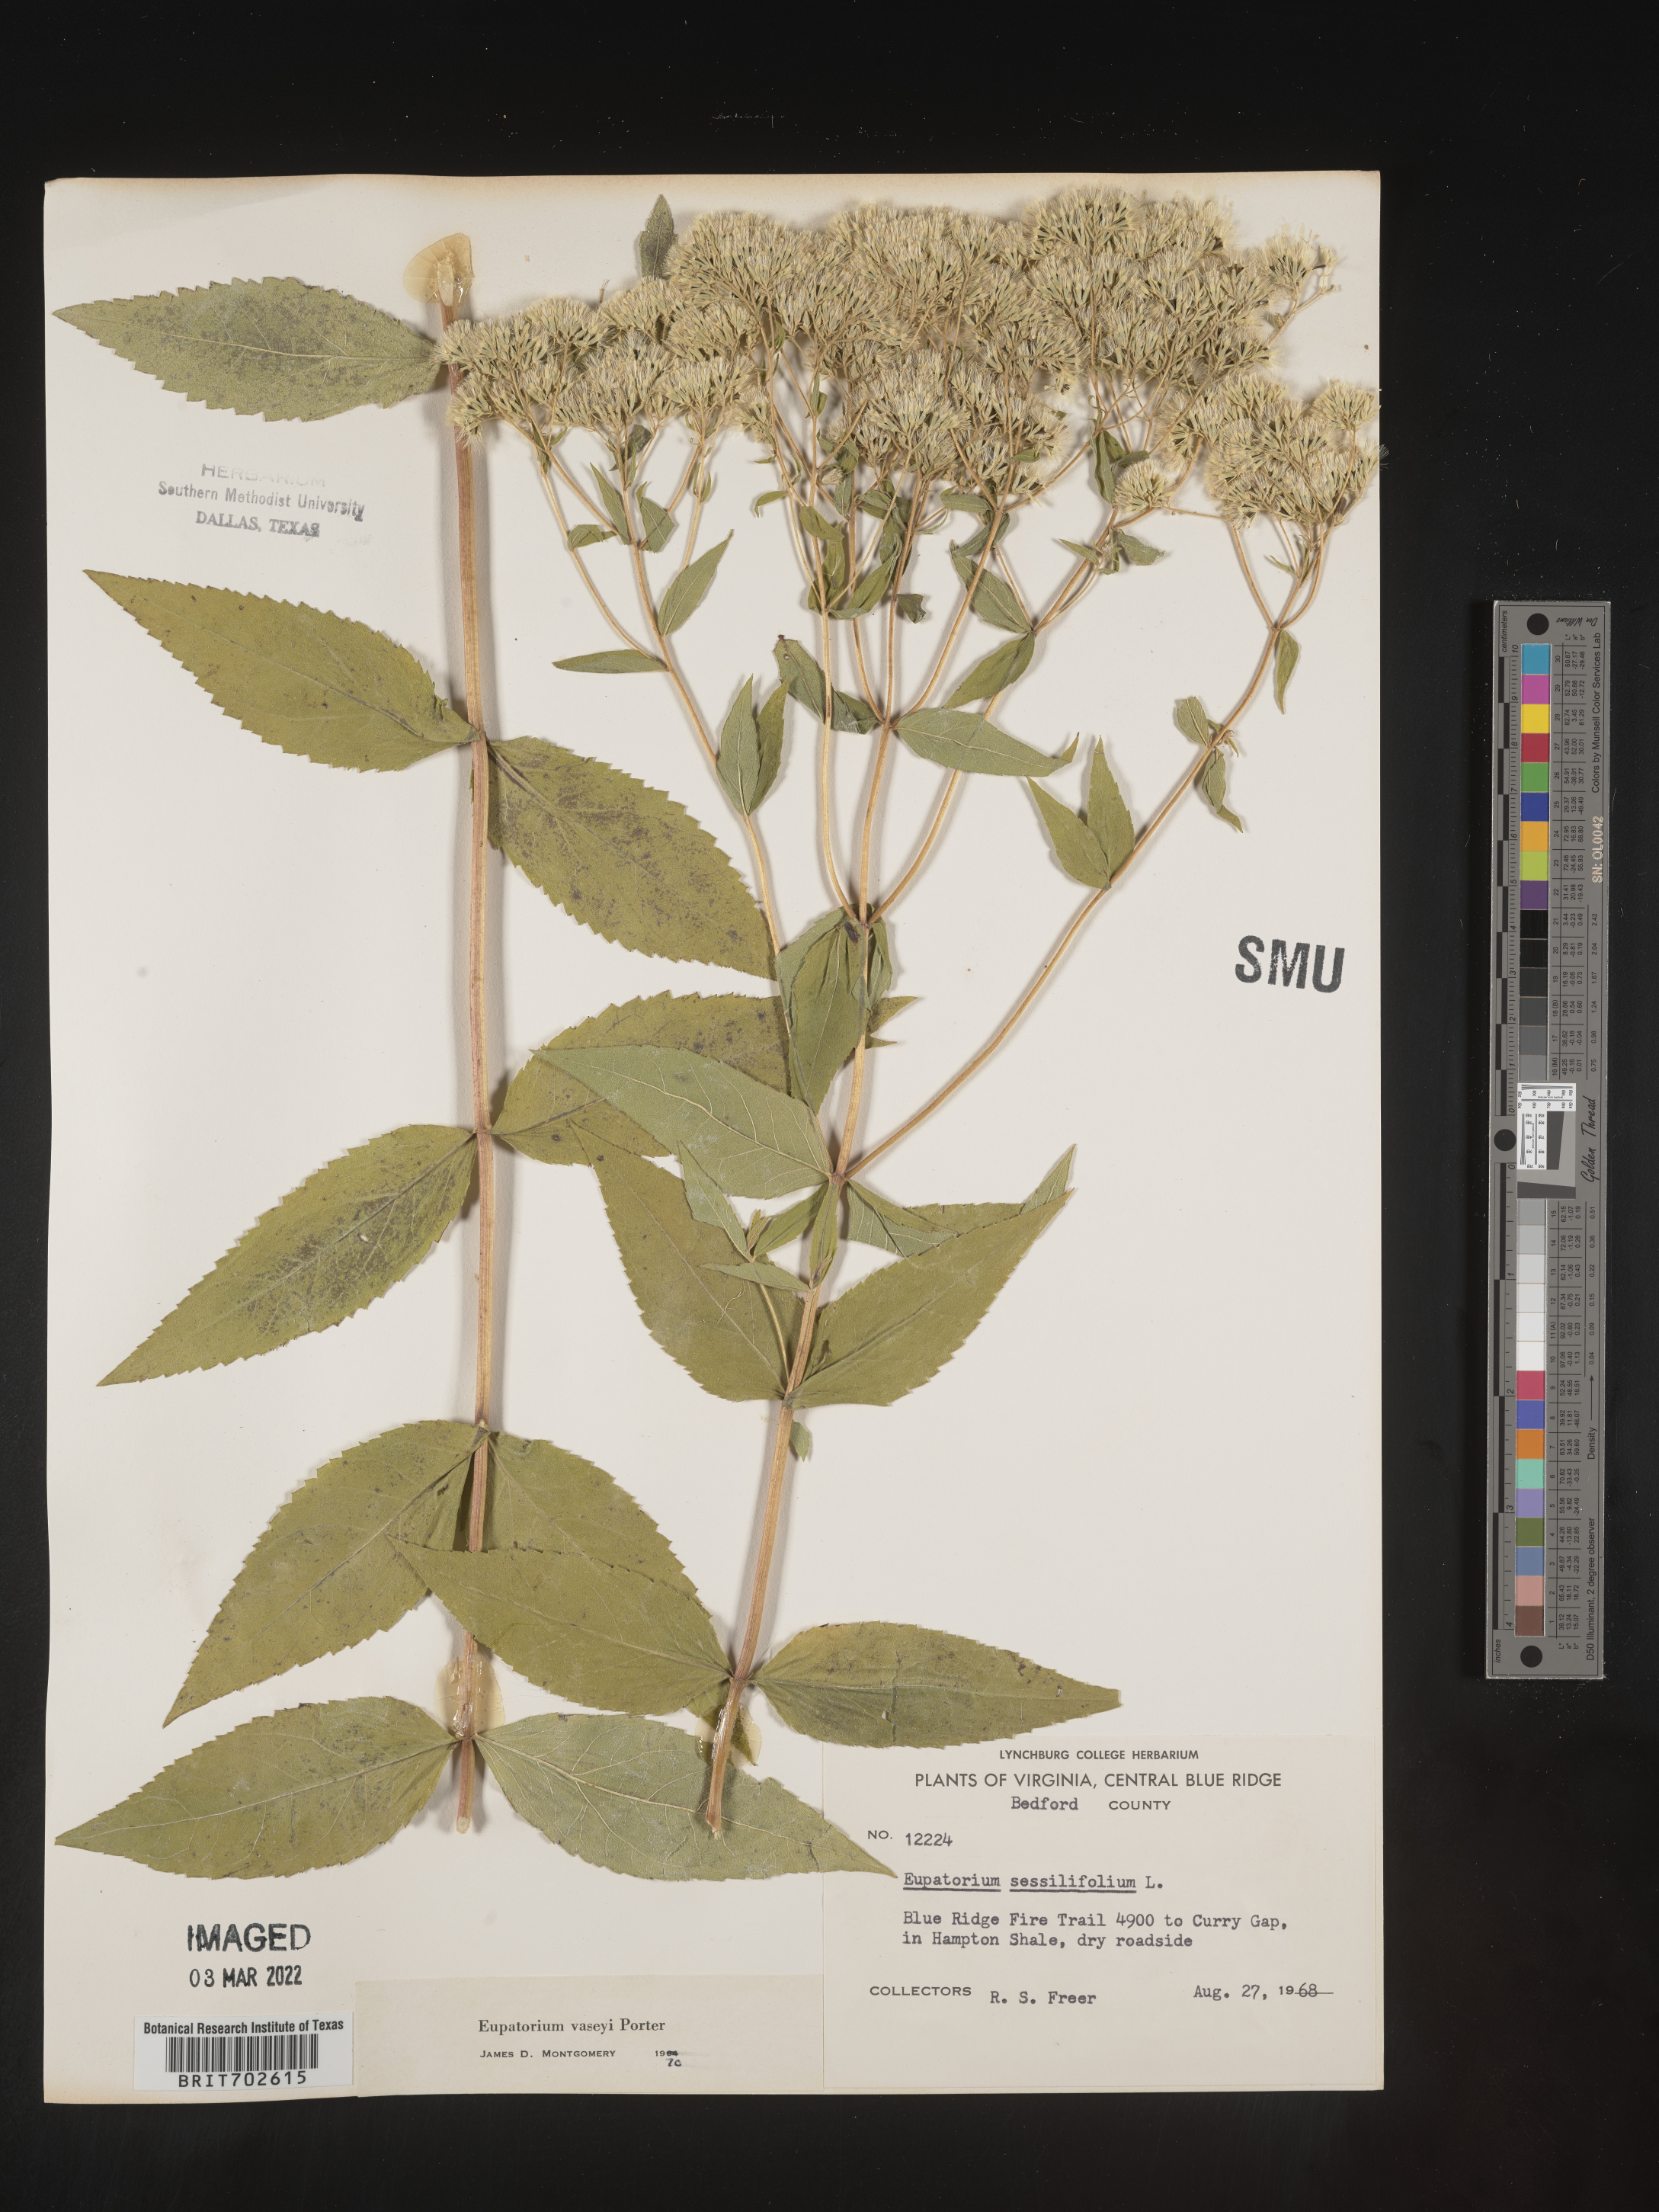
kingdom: Plantae
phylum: Tracheophyta
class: Magnoliopsida
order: Asterales
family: Asteraceae
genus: Eupatorium
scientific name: Eupatorium sessilifolium
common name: Upland boneset
